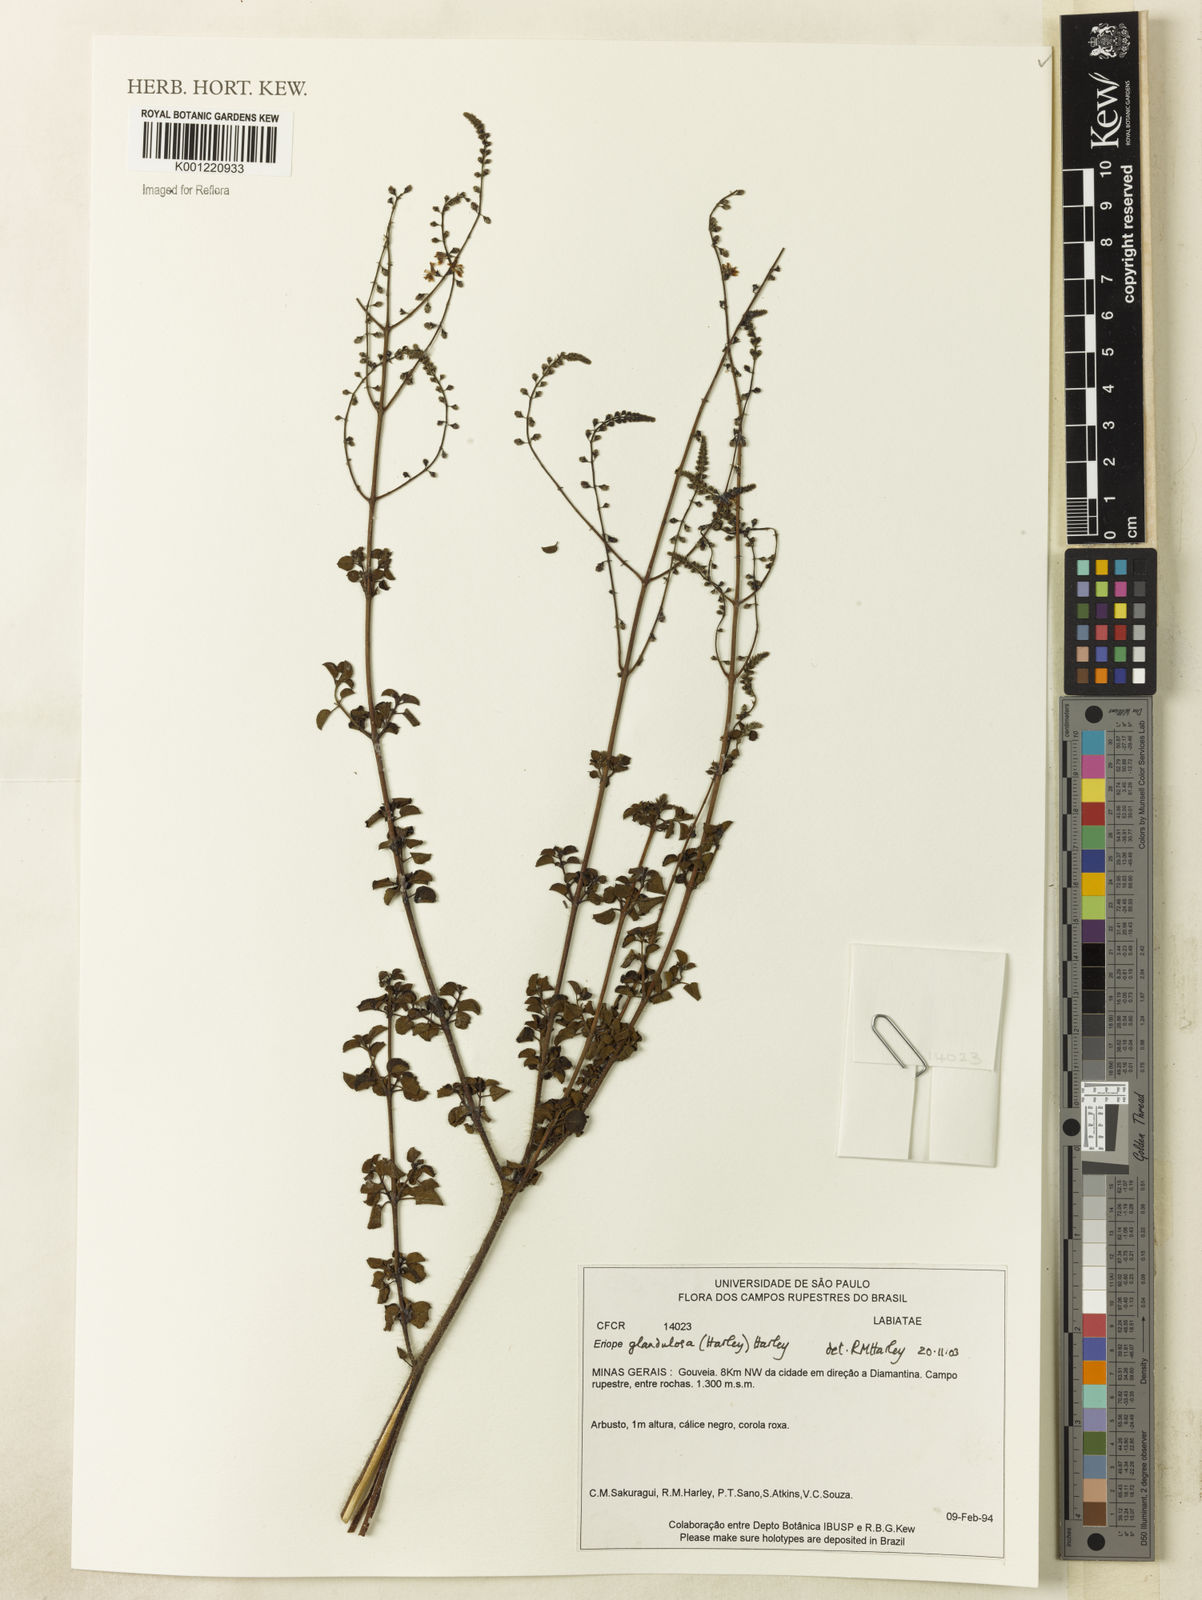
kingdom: Plantae
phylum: Tracheophyta
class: Magnoliopsida
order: Lamiales
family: Lamiaceae
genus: Eriope
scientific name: Eriope glandulosa
